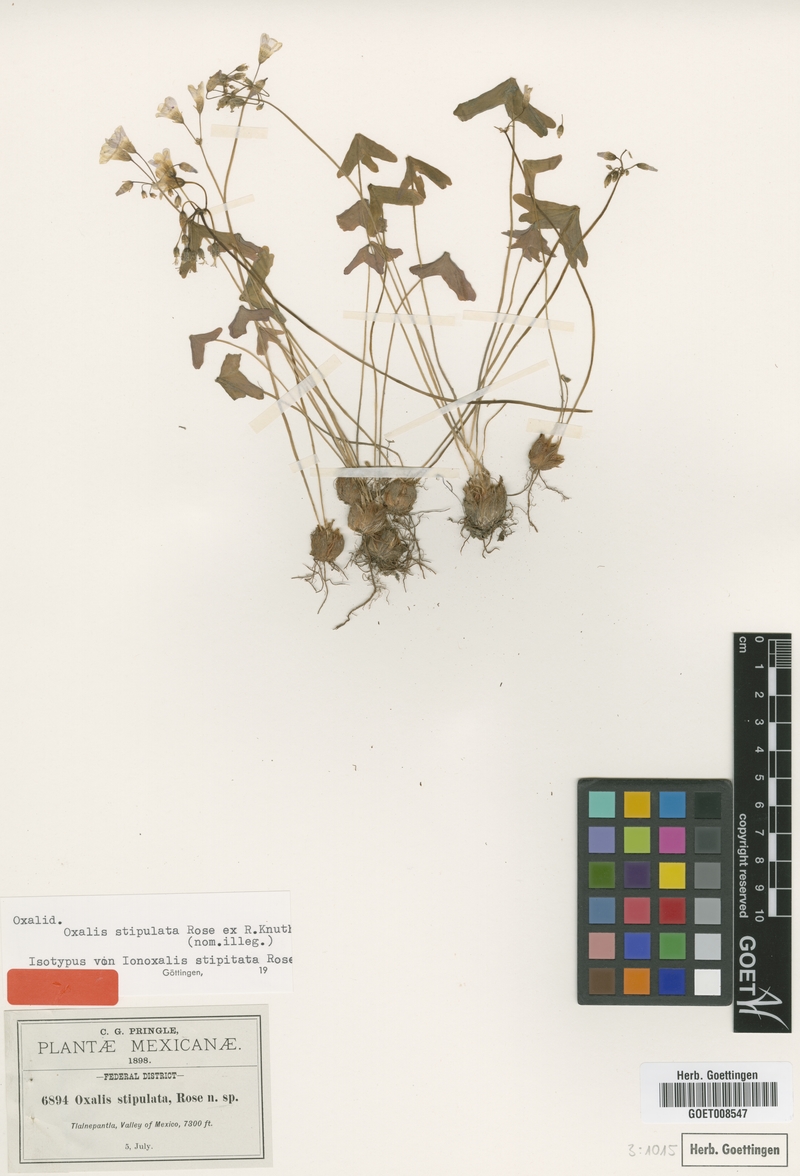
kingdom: Plantae
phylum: Tracheophyta
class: Magnoliopsida
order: Oxalidales
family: Oxalidaceae
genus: Oxalis
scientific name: Oxalis latifolia
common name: Garden pink-sorrel
